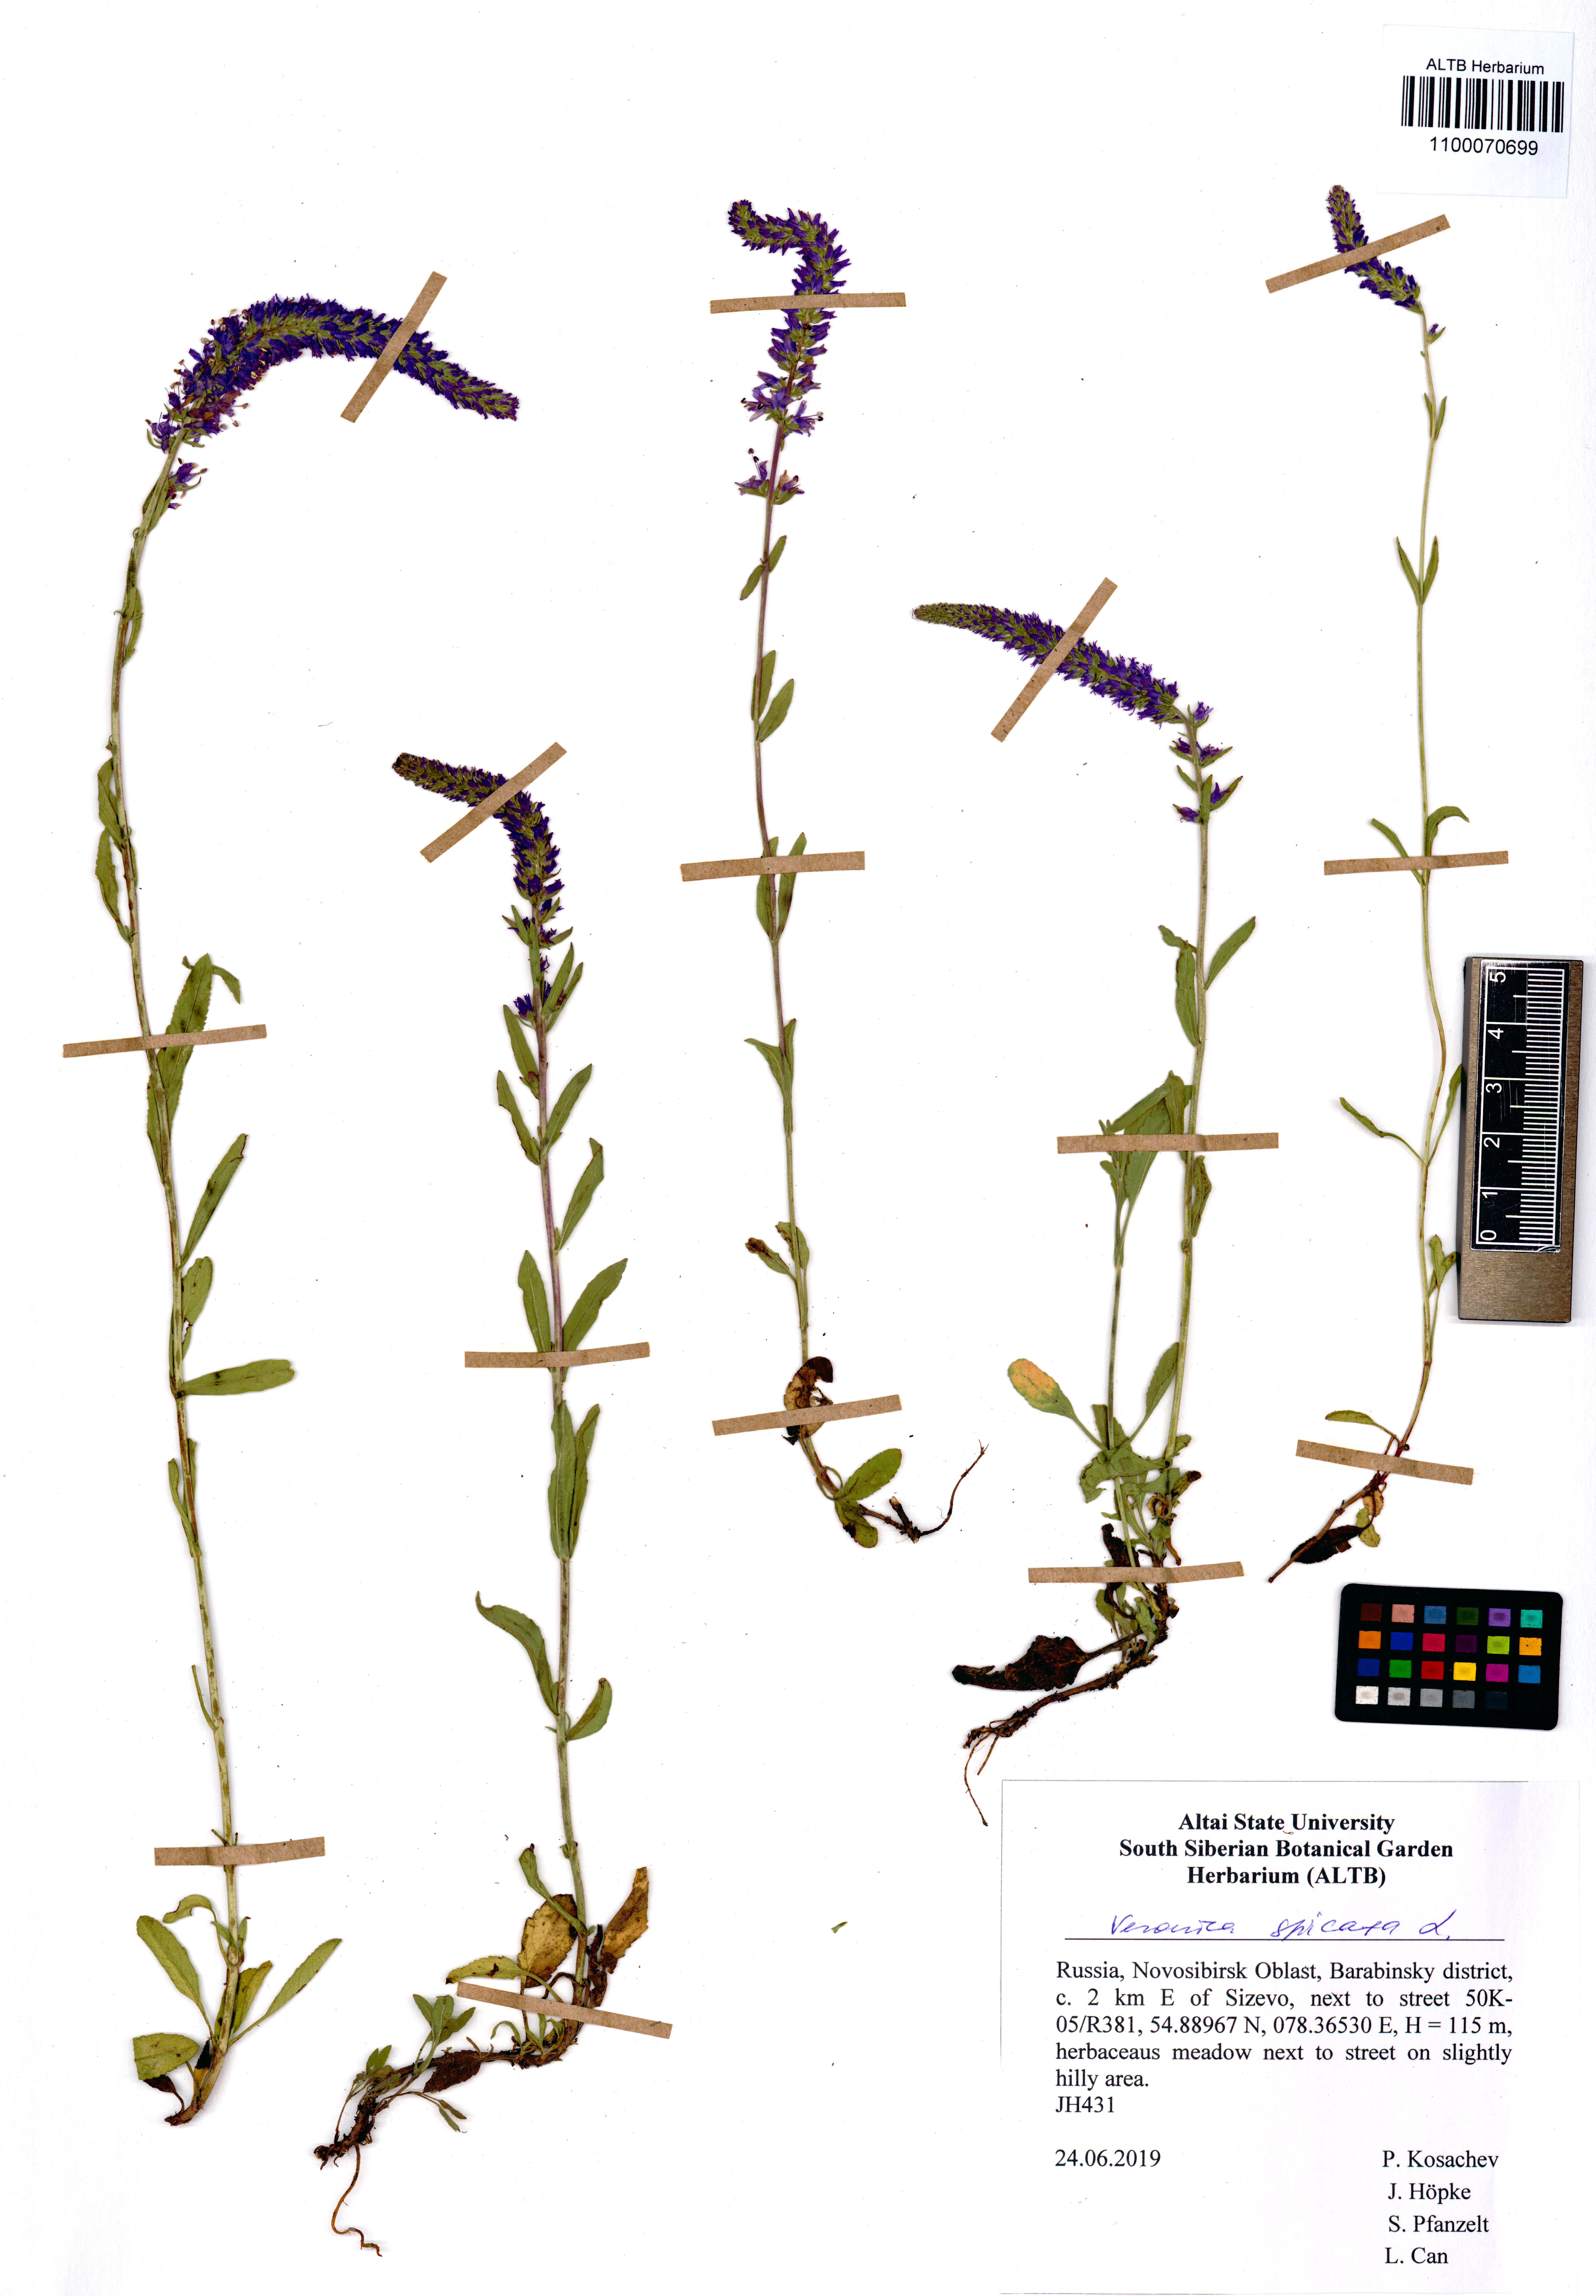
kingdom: Plantae
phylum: Tracheophyta
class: Magnoliopsida
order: Lamiales
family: Plantaginaceae
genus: Veronica
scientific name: Veronica spicata
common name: Spiked speedwell
